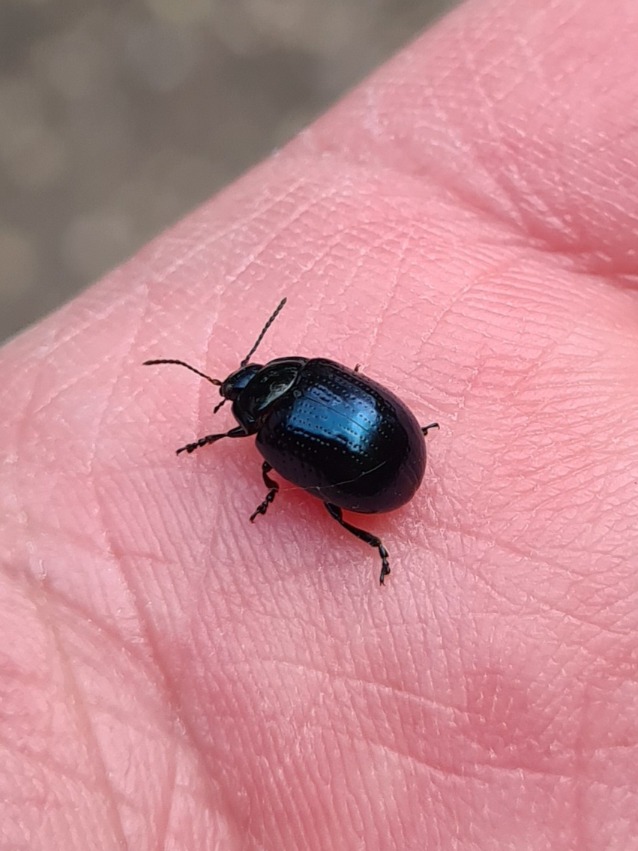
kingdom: Animalia
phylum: Arthropoda
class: Insecta
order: Coleoptera
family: Chrysomelidae
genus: Chrysolina
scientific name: Chrysolina oricalcia
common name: Rækkepunkteret guldbille
